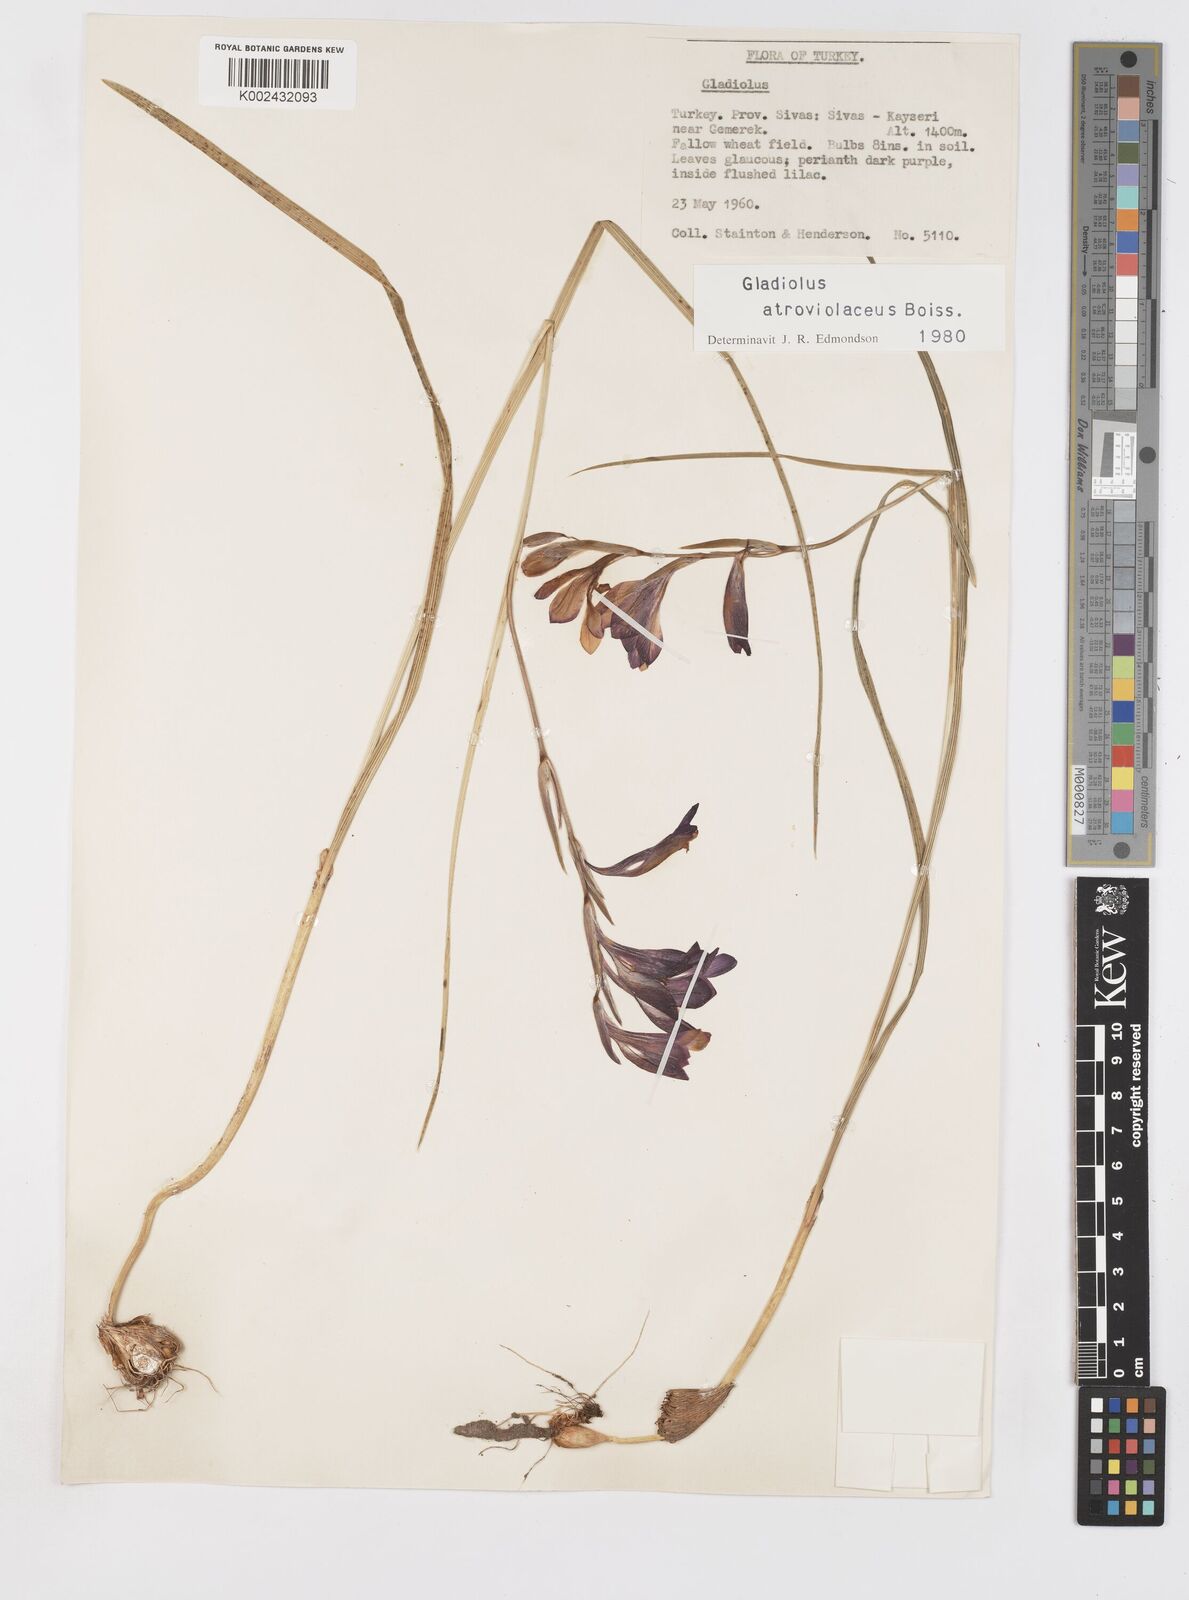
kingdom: Plantae
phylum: Tracheophyta
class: Liliopsida
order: Asparagales
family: Iridaceae
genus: Gladiolus
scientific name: Gladiolus atroviolaceus
